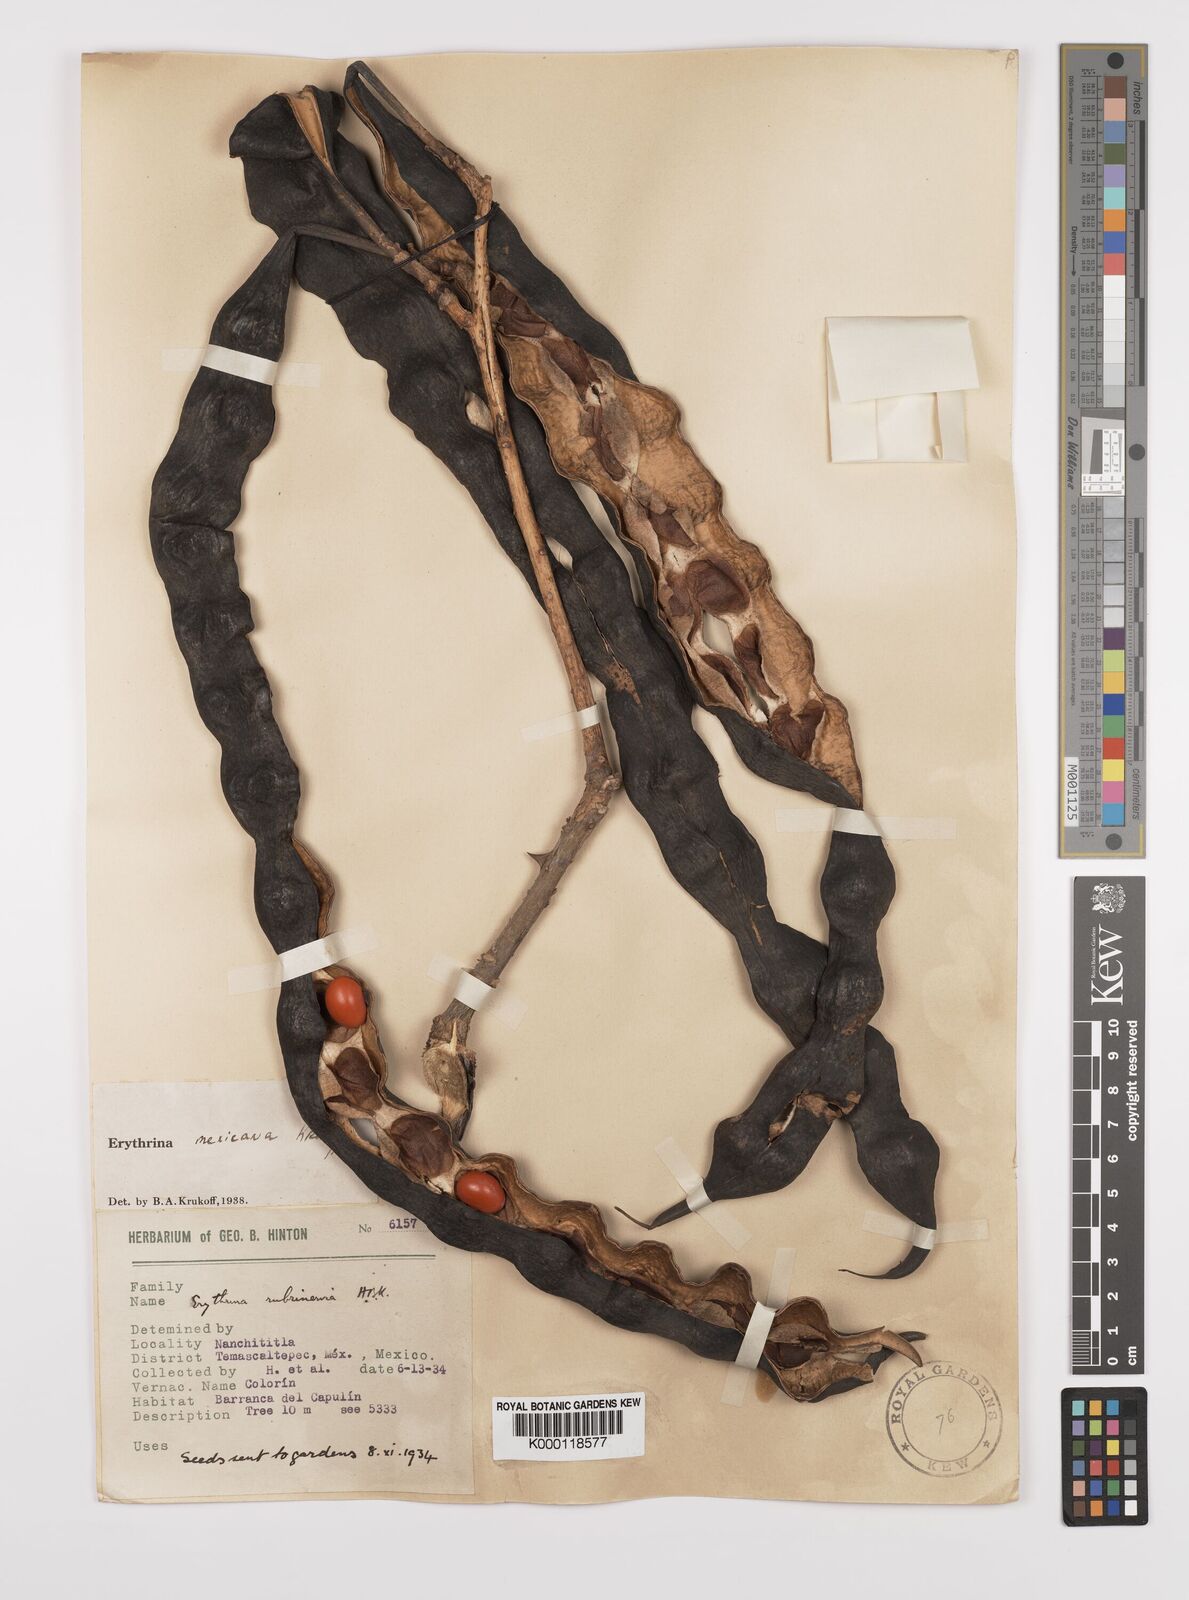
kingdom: Plantae
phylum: Tracheophyta
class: Magnoliopsida
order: Fabales
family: Fabaceae
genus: Erythrina
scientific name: Erythrina mexicana
